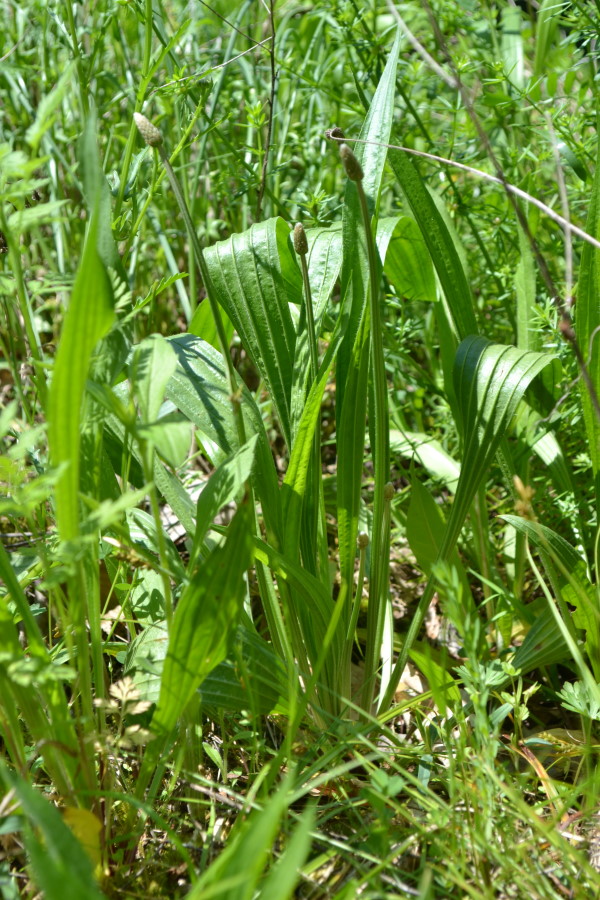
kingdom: Plantae
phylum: Tracheophyta
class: Magnoliopsida
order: Lamiales
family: Plantaginaceae
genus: Plantago
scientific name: Plantago lanceolata
